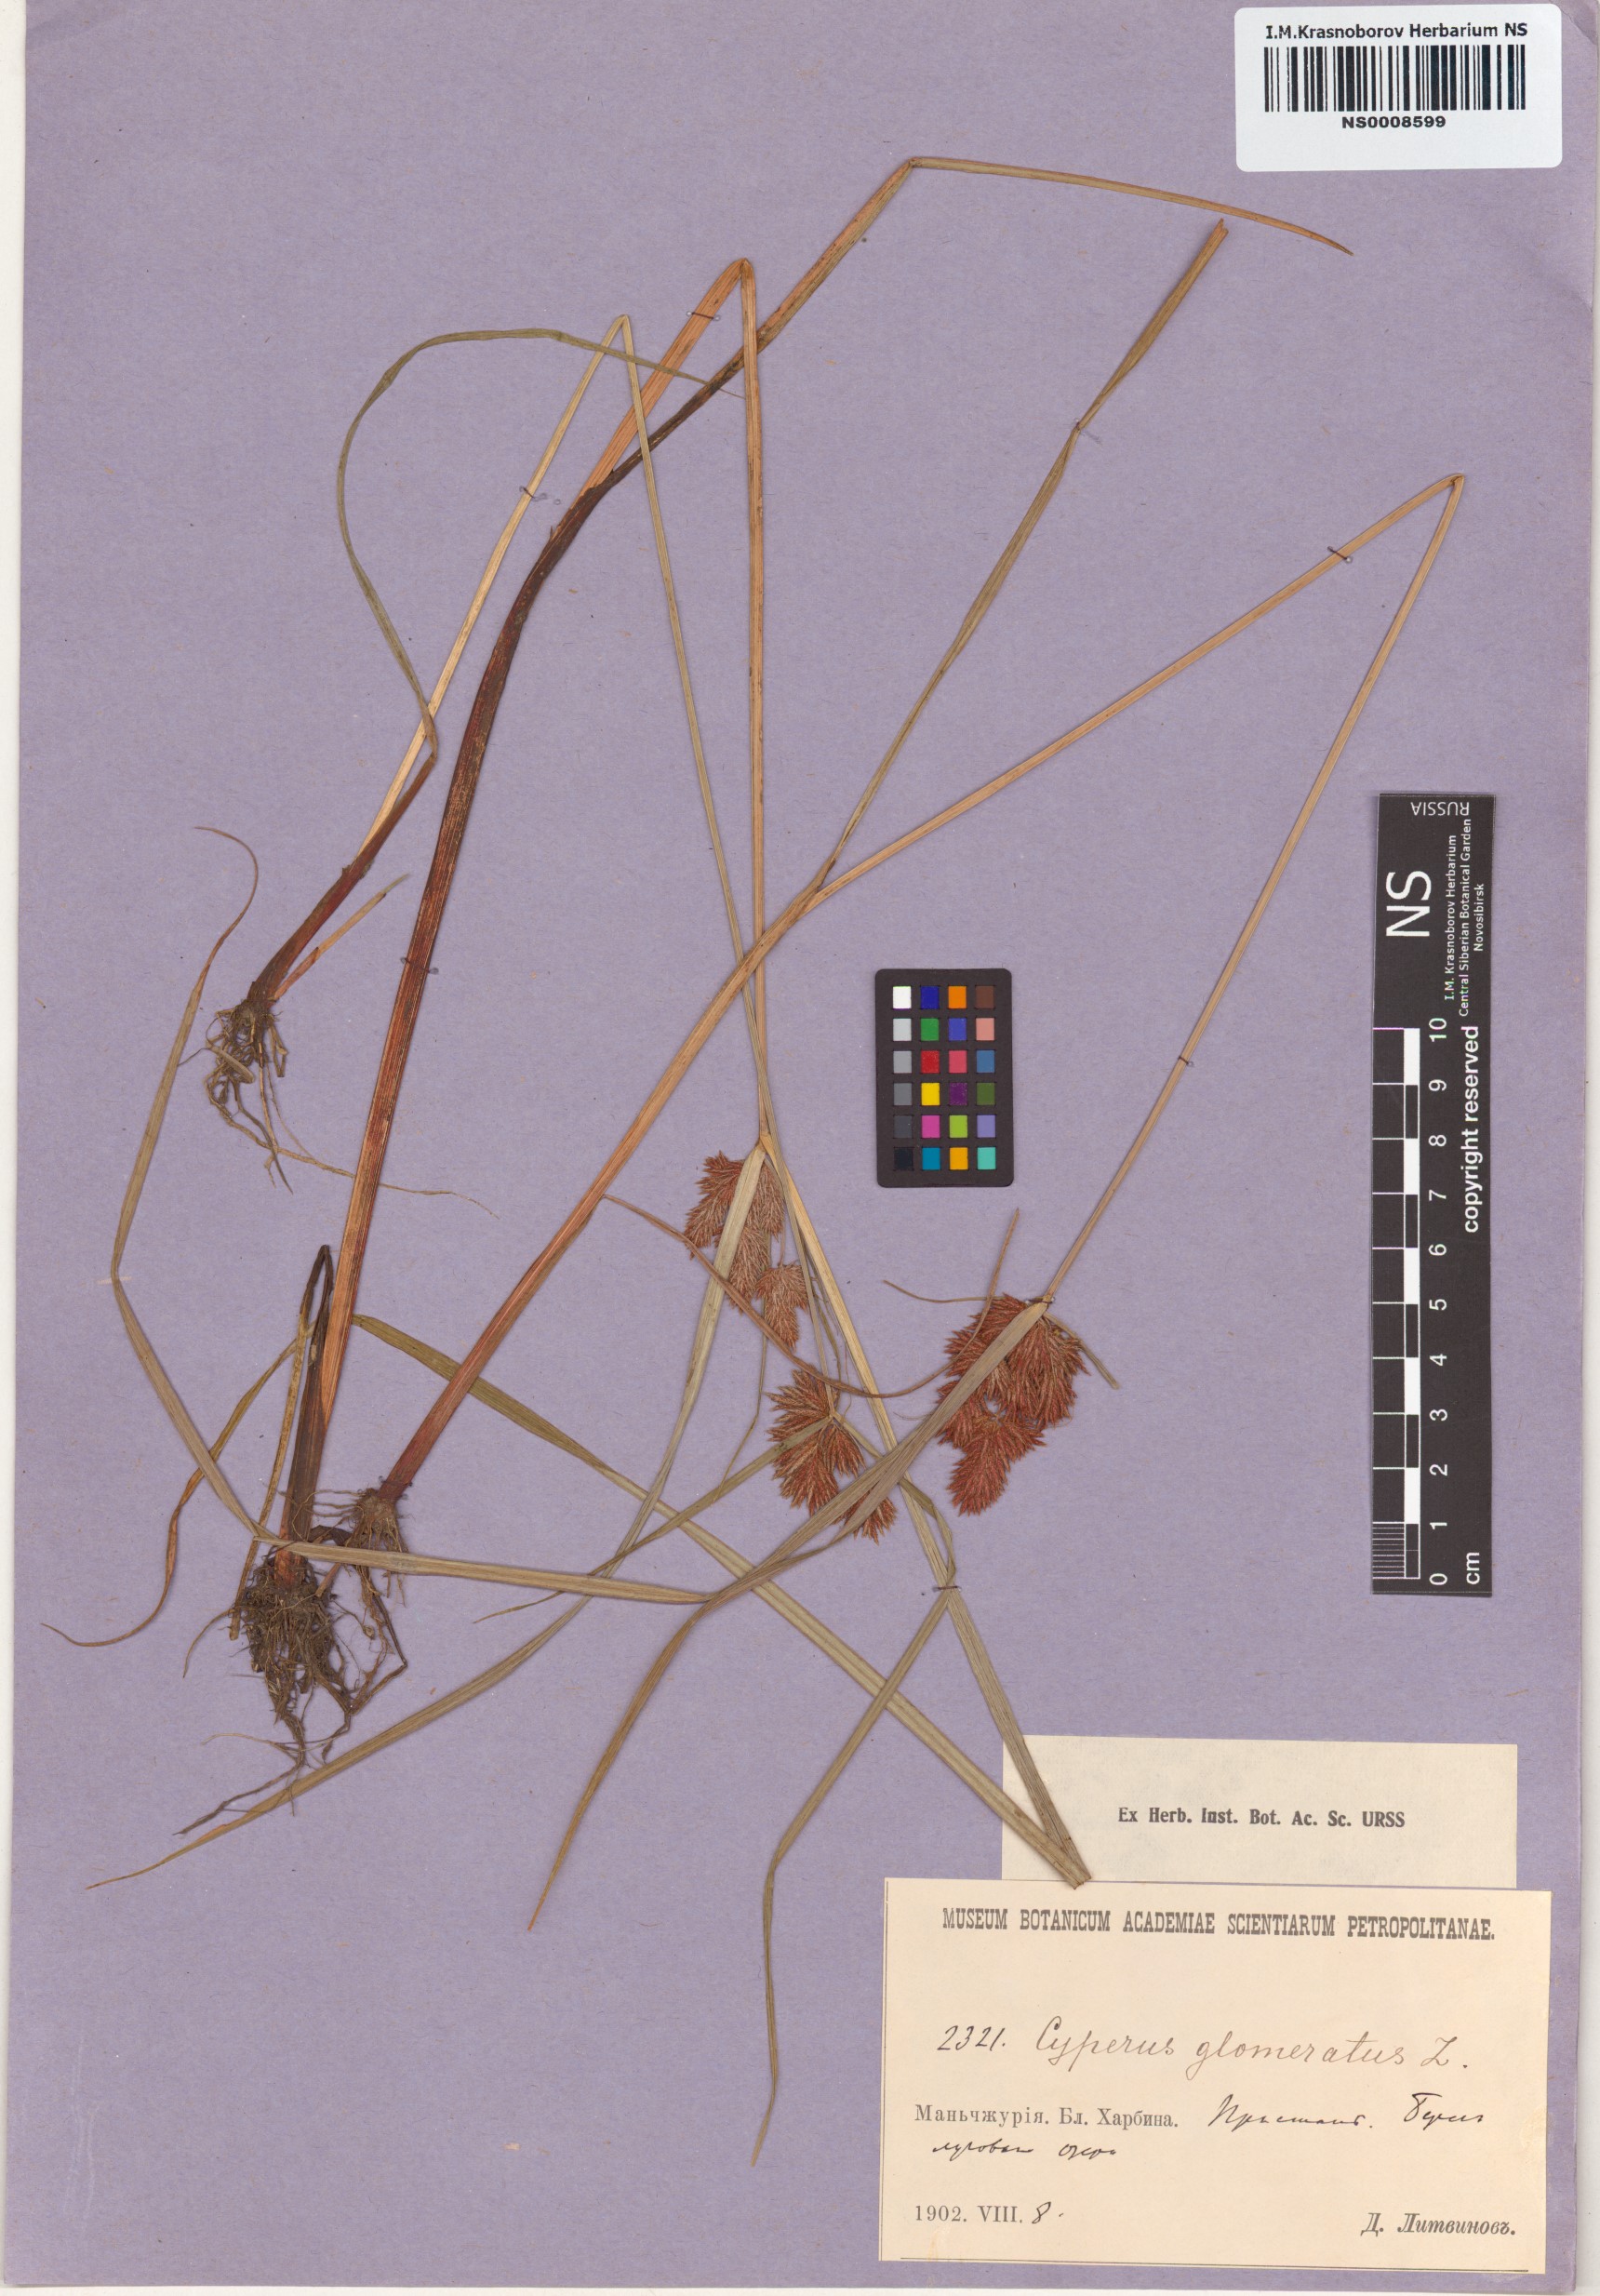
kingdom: Plantae
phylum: Tracheophyta
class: Liliopsida
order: Poales
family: Cyperaceae
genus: Cyperus
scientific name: Cyperus glomeratus
